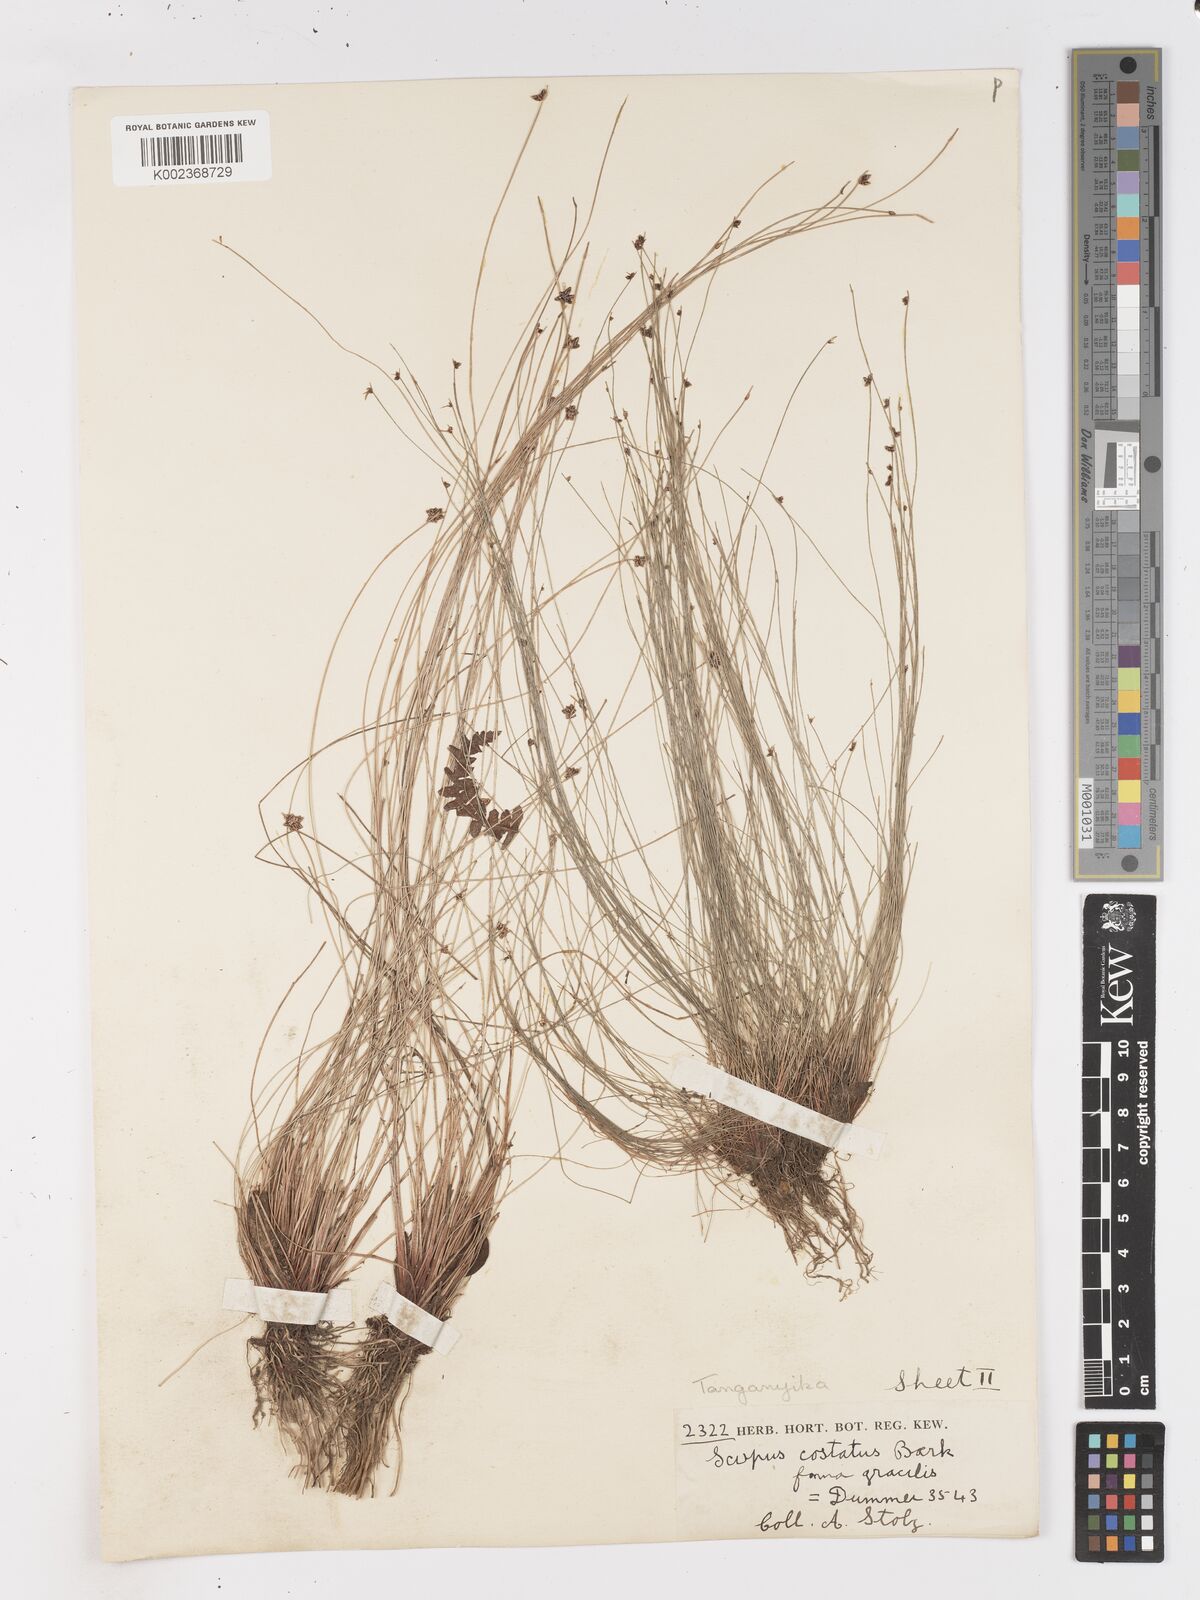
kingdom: Plantae
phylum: Tracheophyta
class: Liliopsida
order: Poales
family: Cyperaceae
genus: Isolepis
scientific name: Isolepis costata
